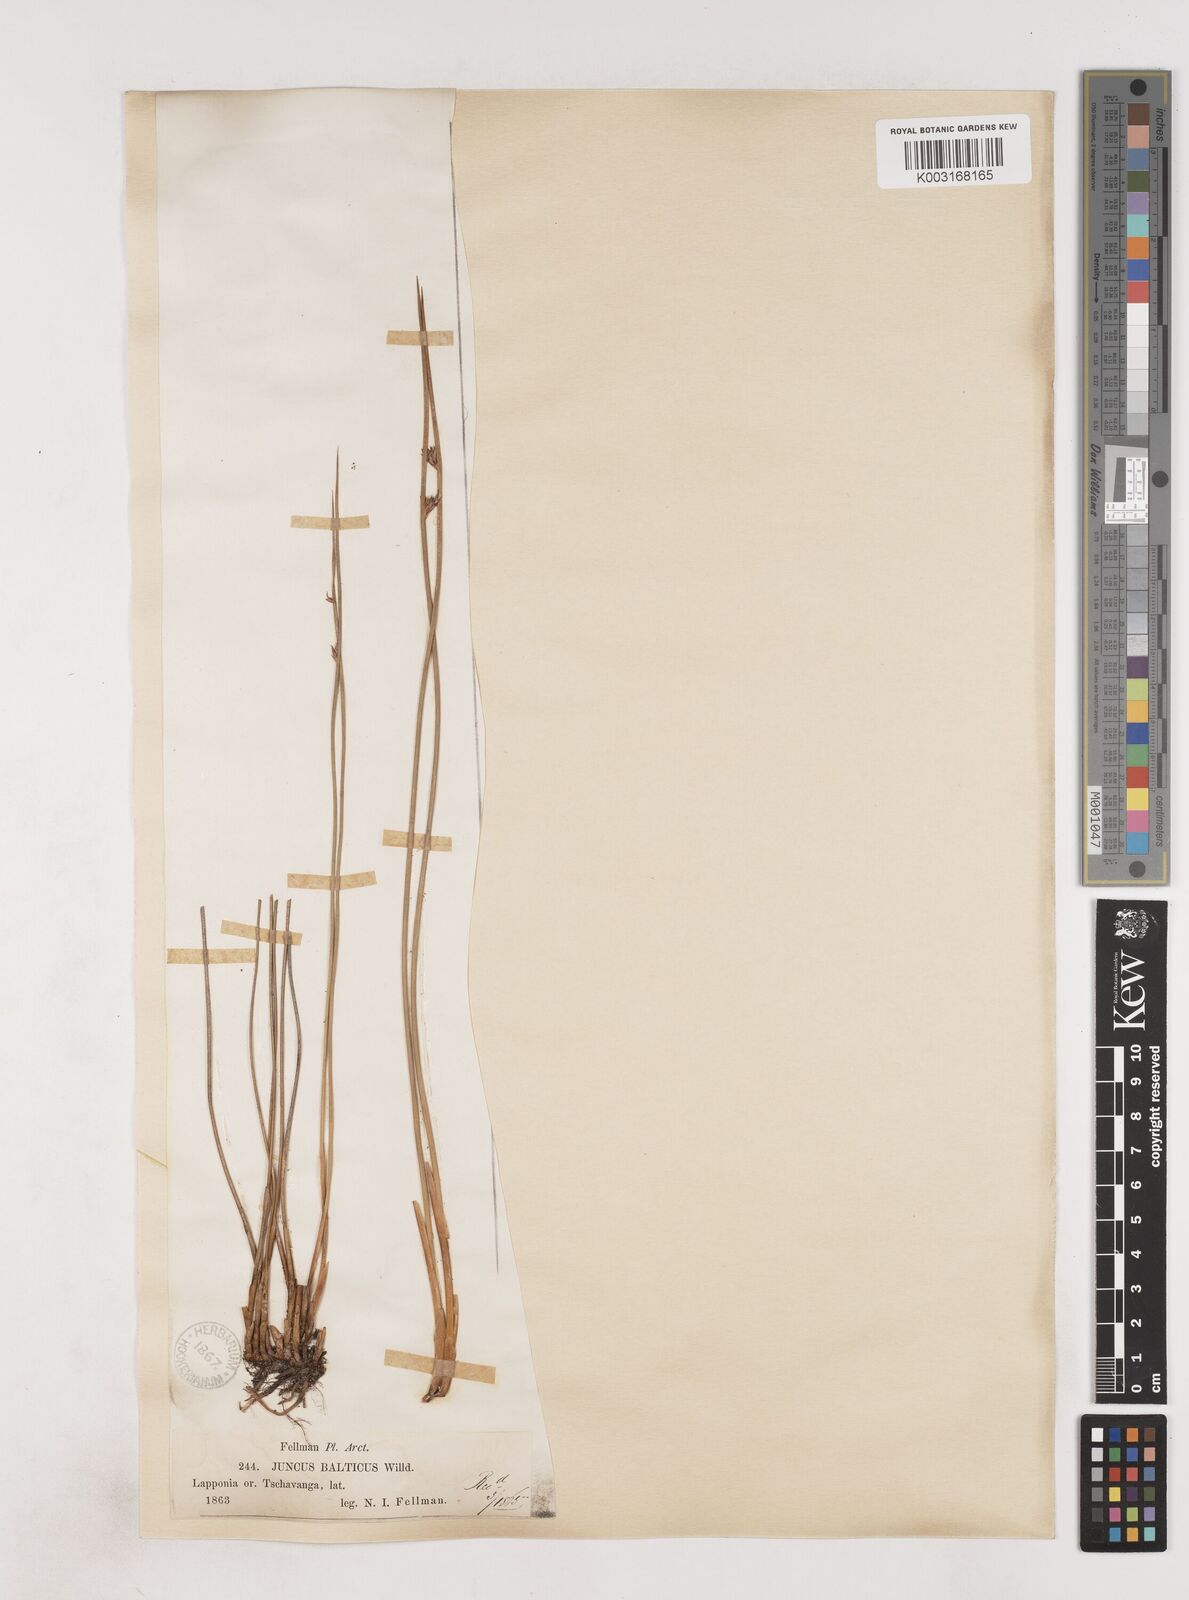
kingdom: Plantae
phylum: Tracheophyta
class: Liliopsida
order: Poales
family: Juncaceae
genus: Juncus
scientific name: Juncus balticus
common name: Baltic rush
